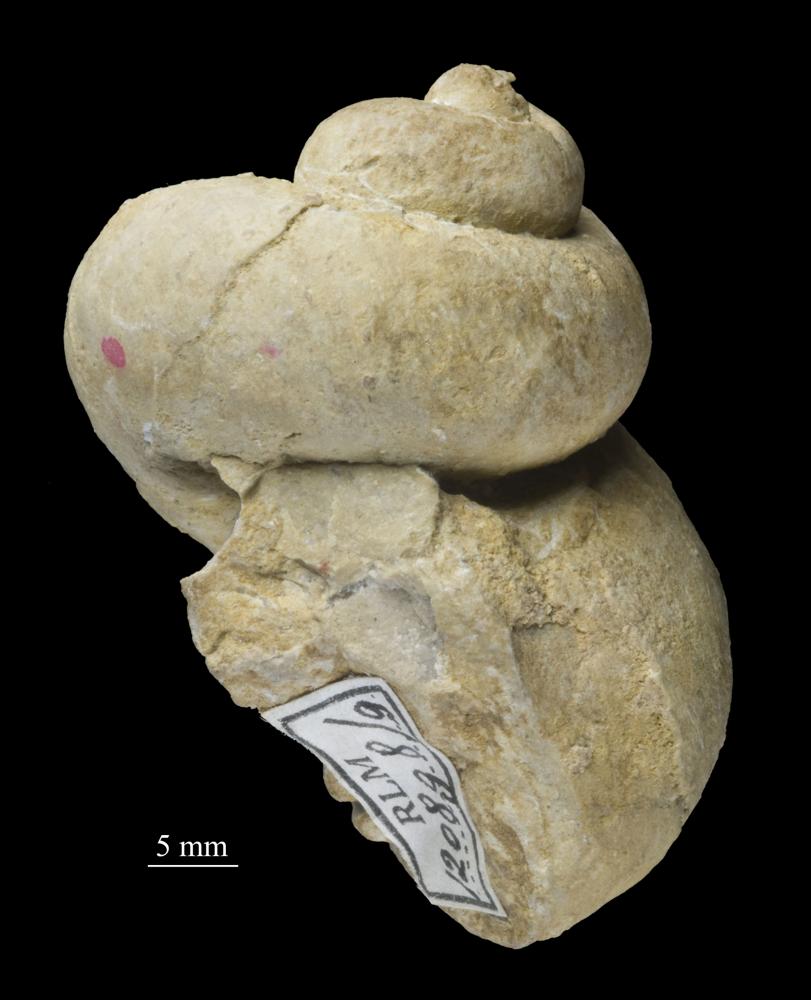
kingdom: Animalia
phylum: Mollusca
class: Gastropoda
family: Holopeidae
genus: Holopea
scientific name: Holopea Turbo balticus
